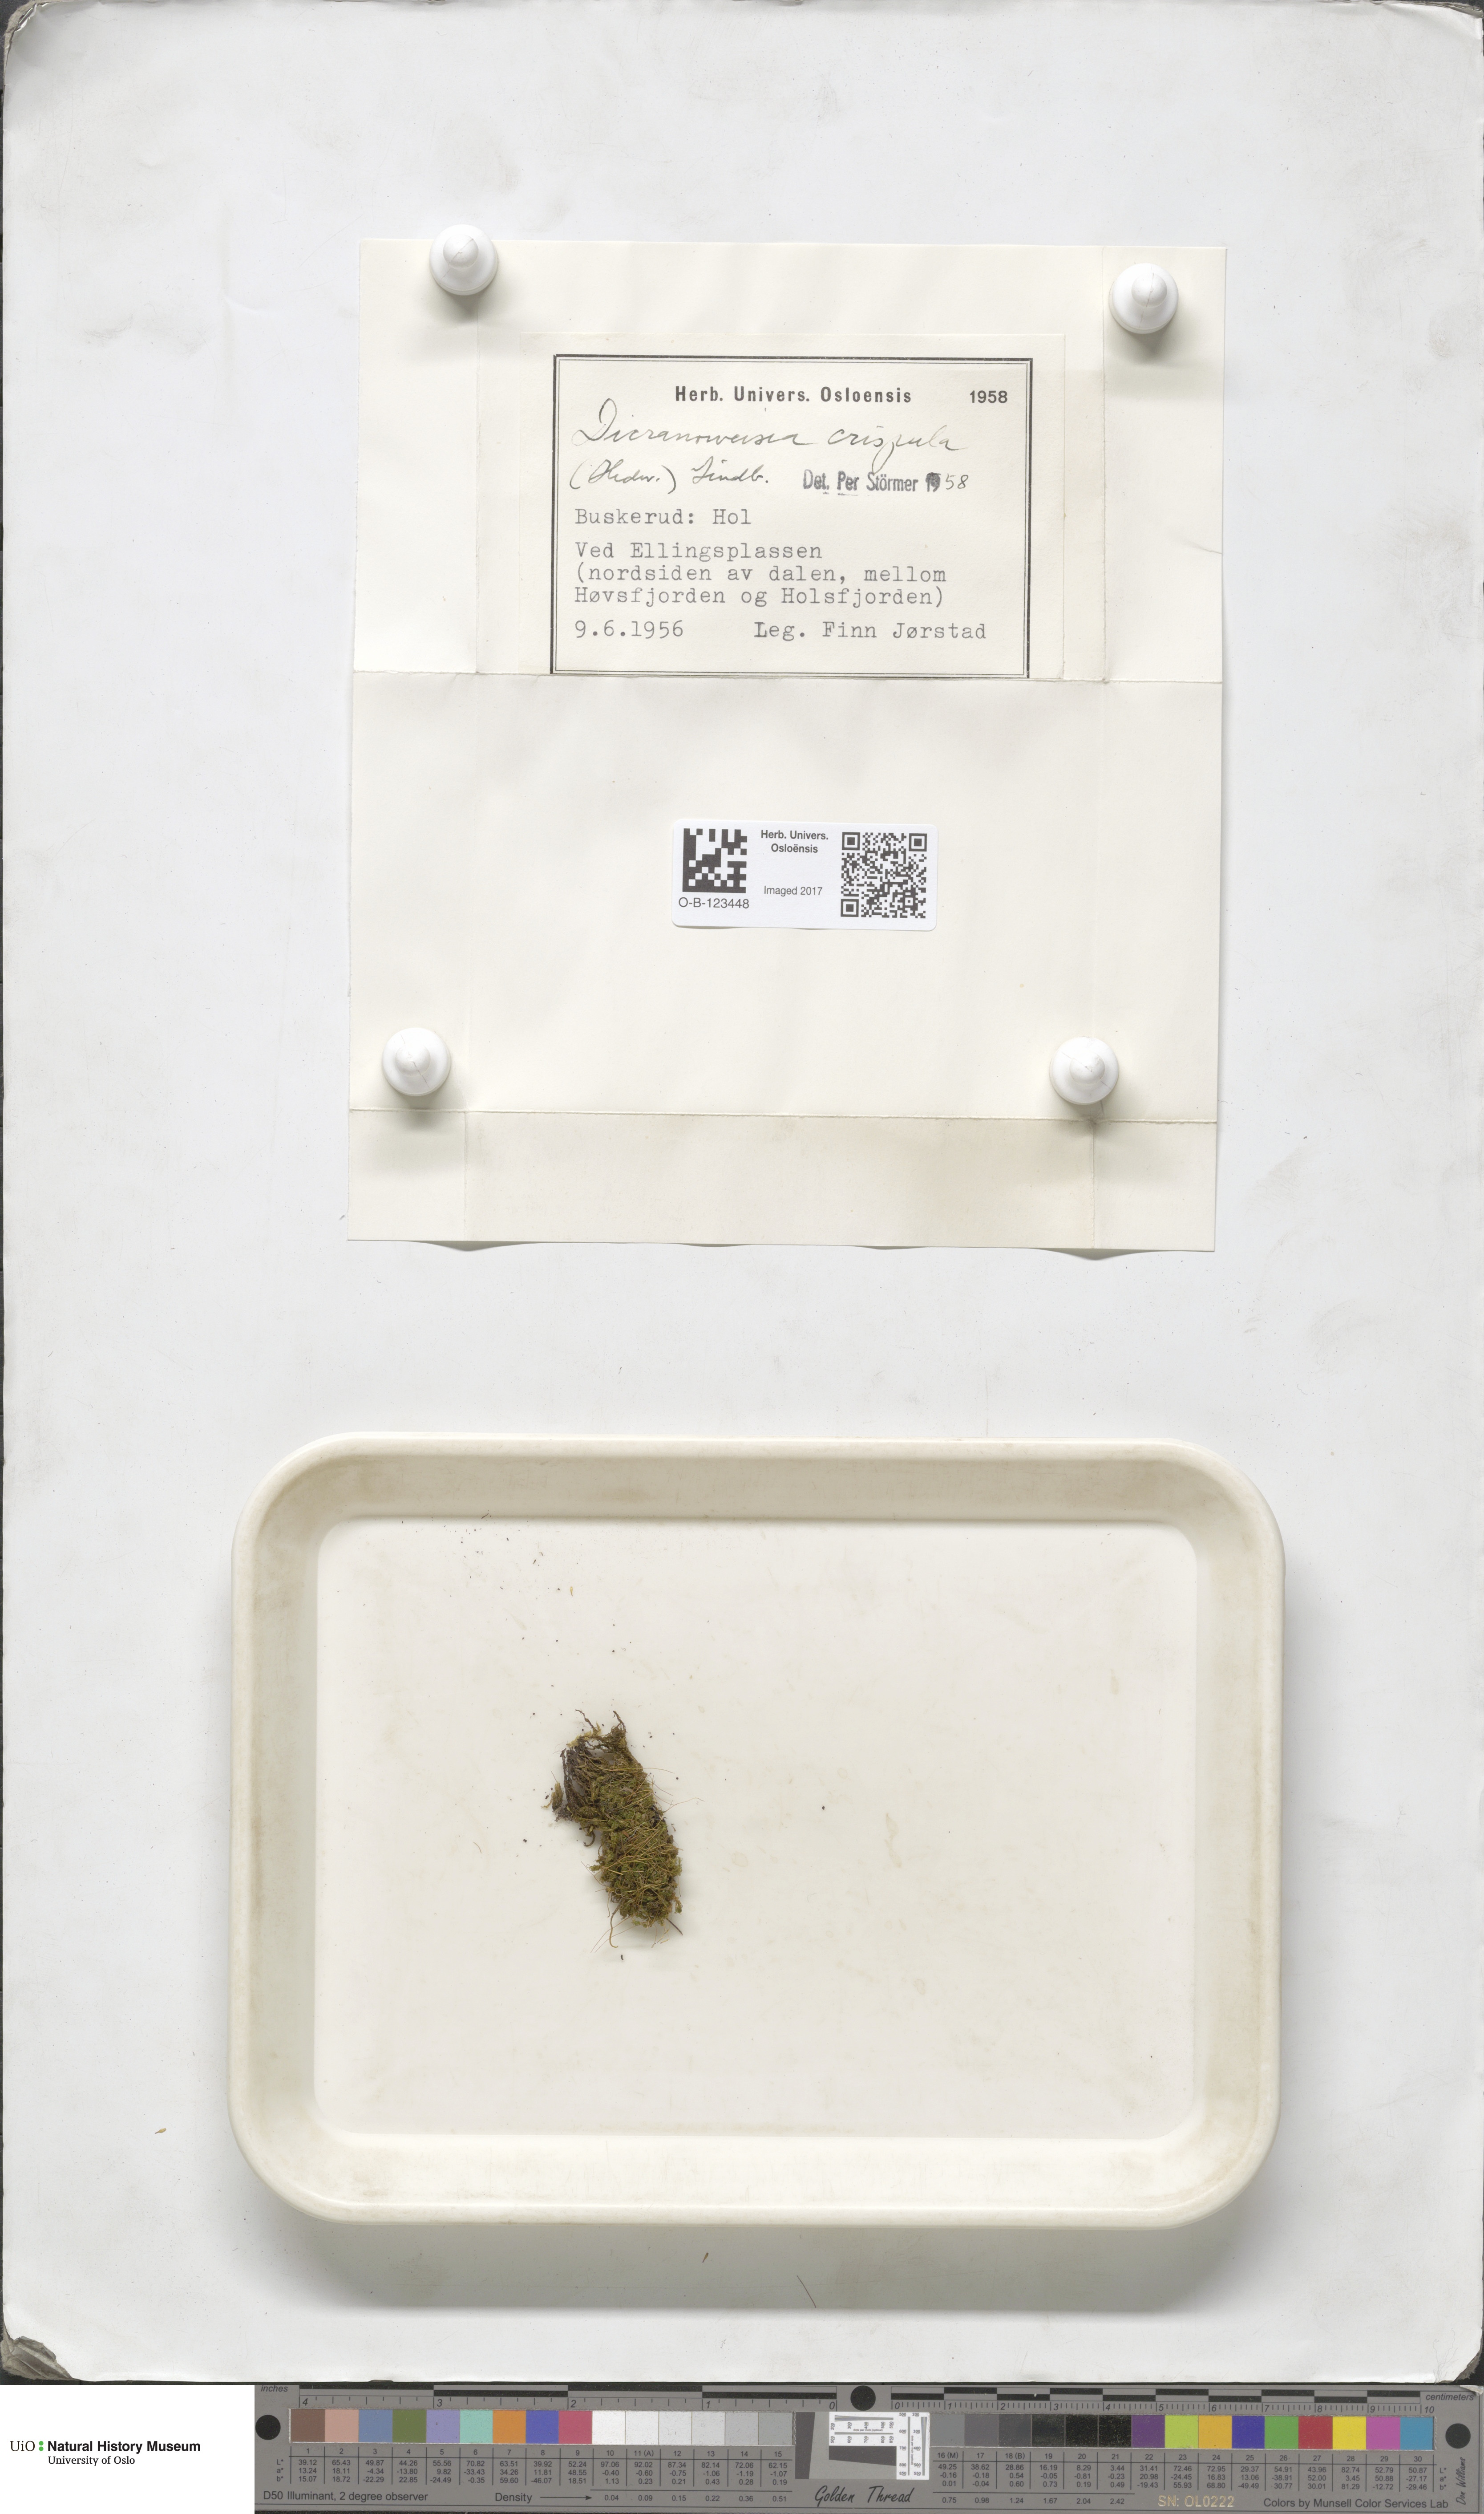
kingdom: Plantae
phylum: Bryophyta
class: Bryopsida
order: Scouleriales
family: Hymenolomataceae
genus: Hymenoloma
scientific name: Hymenoloma crispulum
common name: Mountain pincushion
